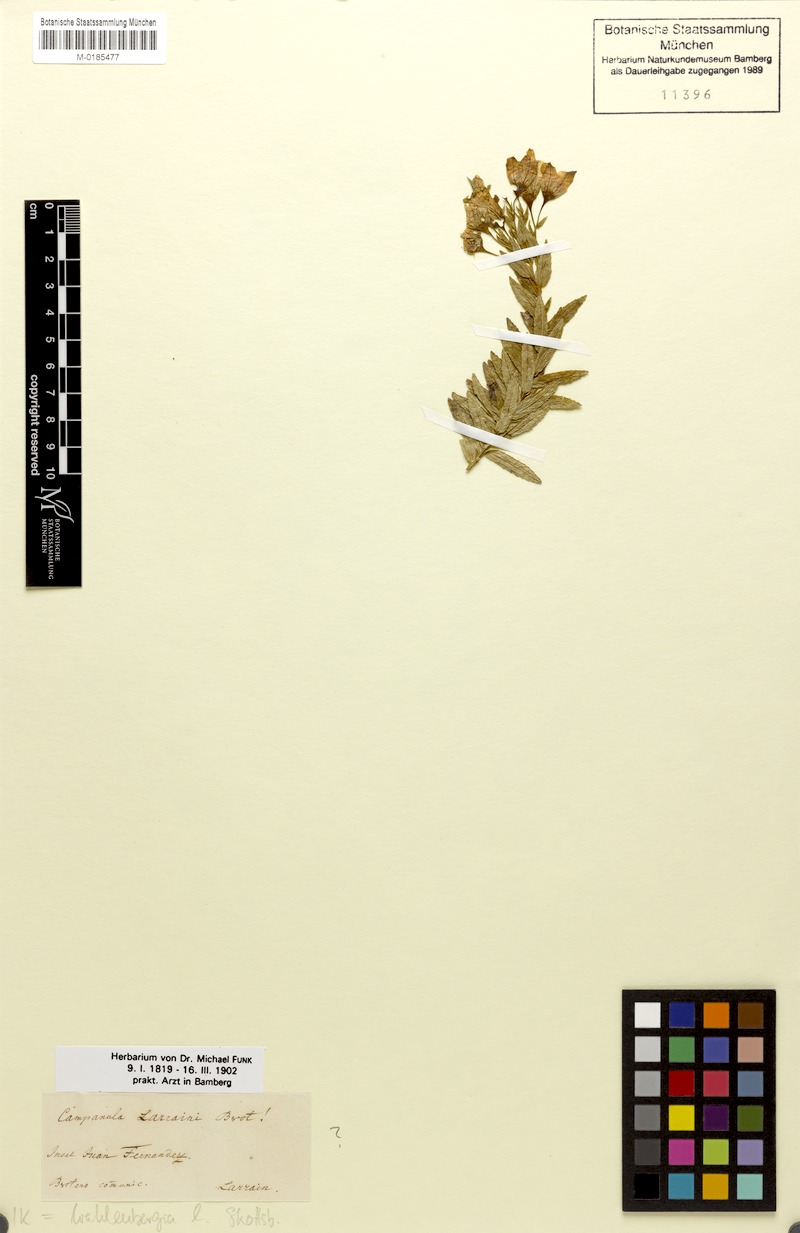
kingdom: Plantae
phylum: Tracheophyta
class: Magnoliopsida
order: Asterales
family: Campanulaceae
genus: Wahlenbergia
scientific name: Wahlenbergia fernandeziana
